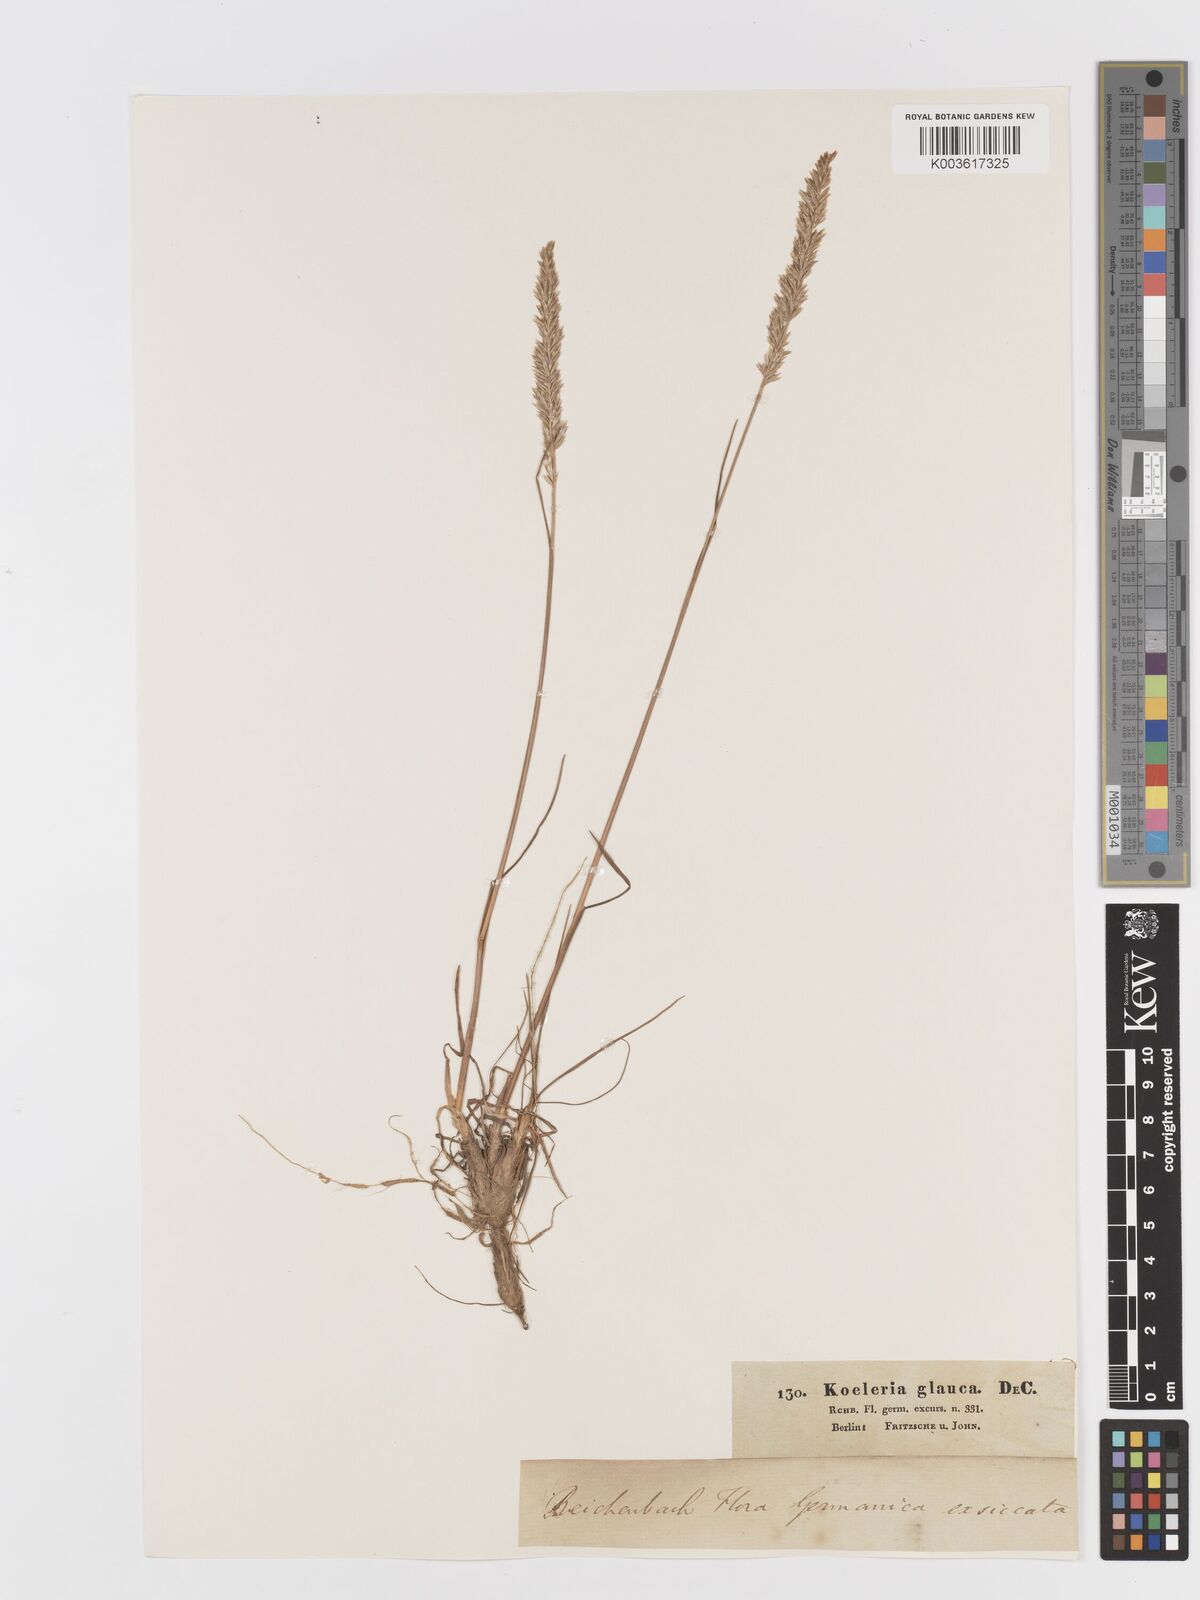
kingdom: Plantae
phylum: Tracheophyta
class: Liliopsida
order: Poales
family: Poaceae
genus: Koeleria
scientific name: Koeleria glauca
